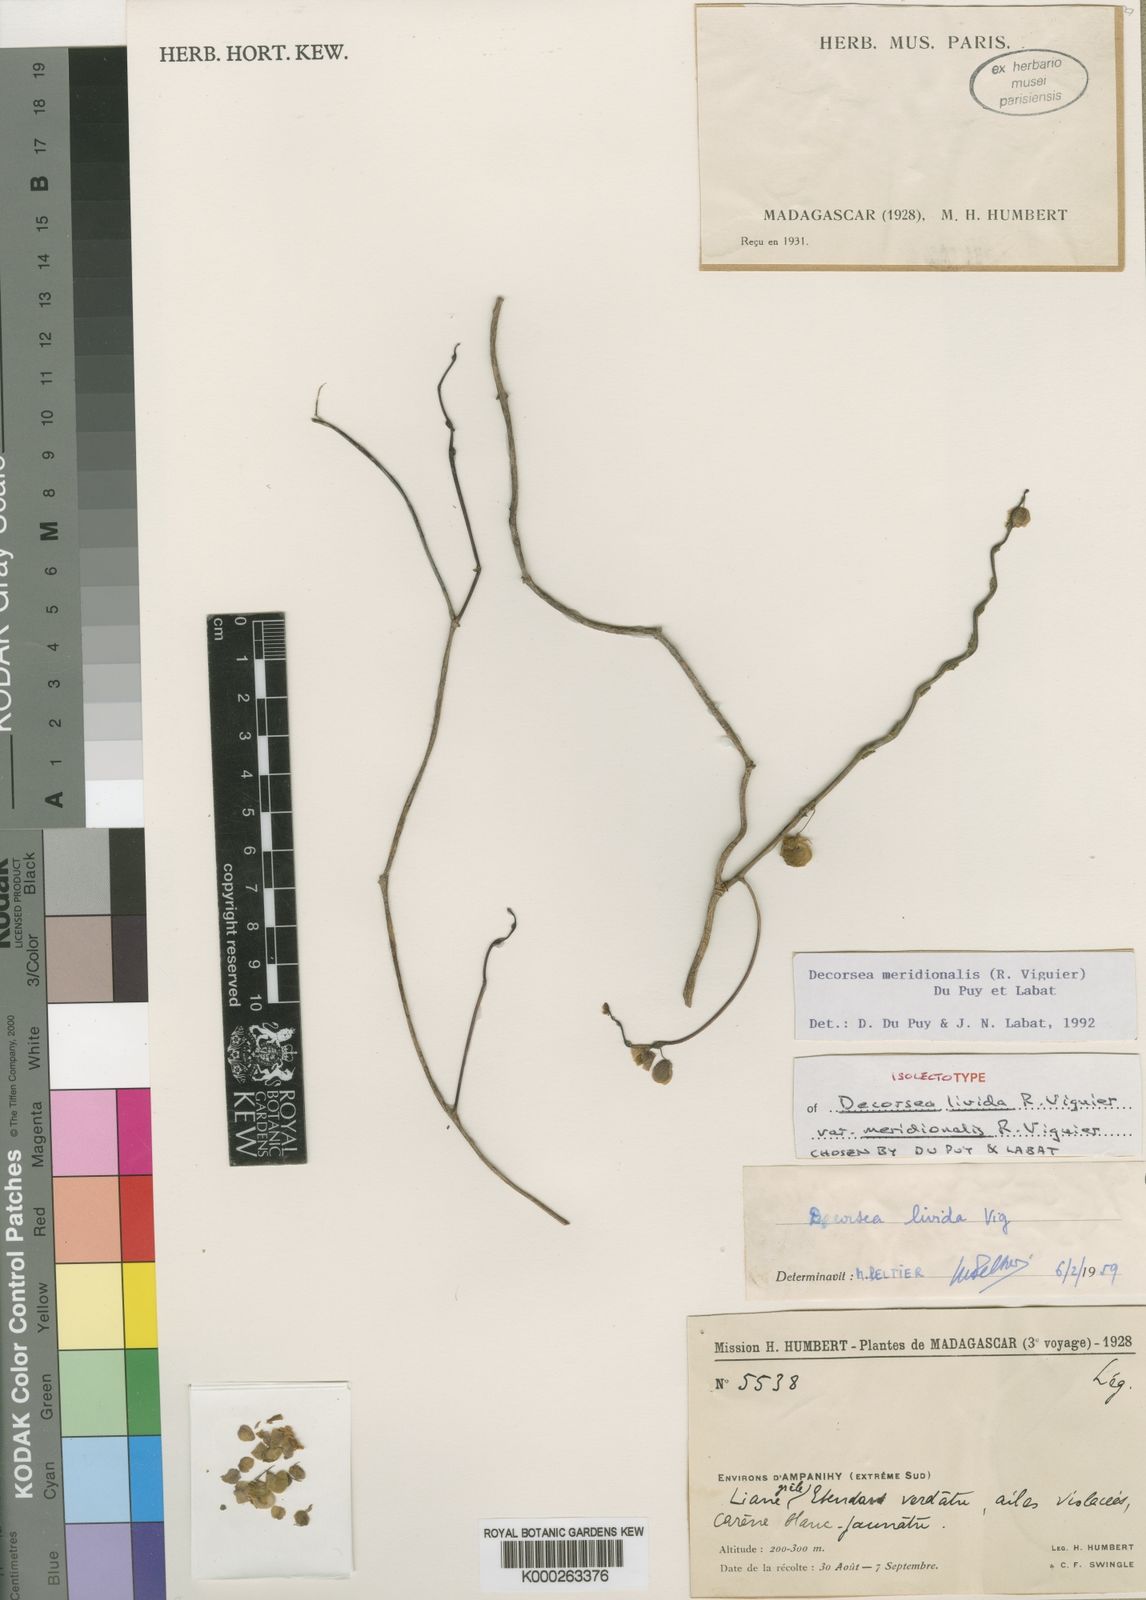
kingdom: Plantae
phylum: Tracheophyta
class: Magnoliopsida
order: Fabales
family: Fabaceae
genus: Decorsea
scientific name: Decorsea meridionalis
